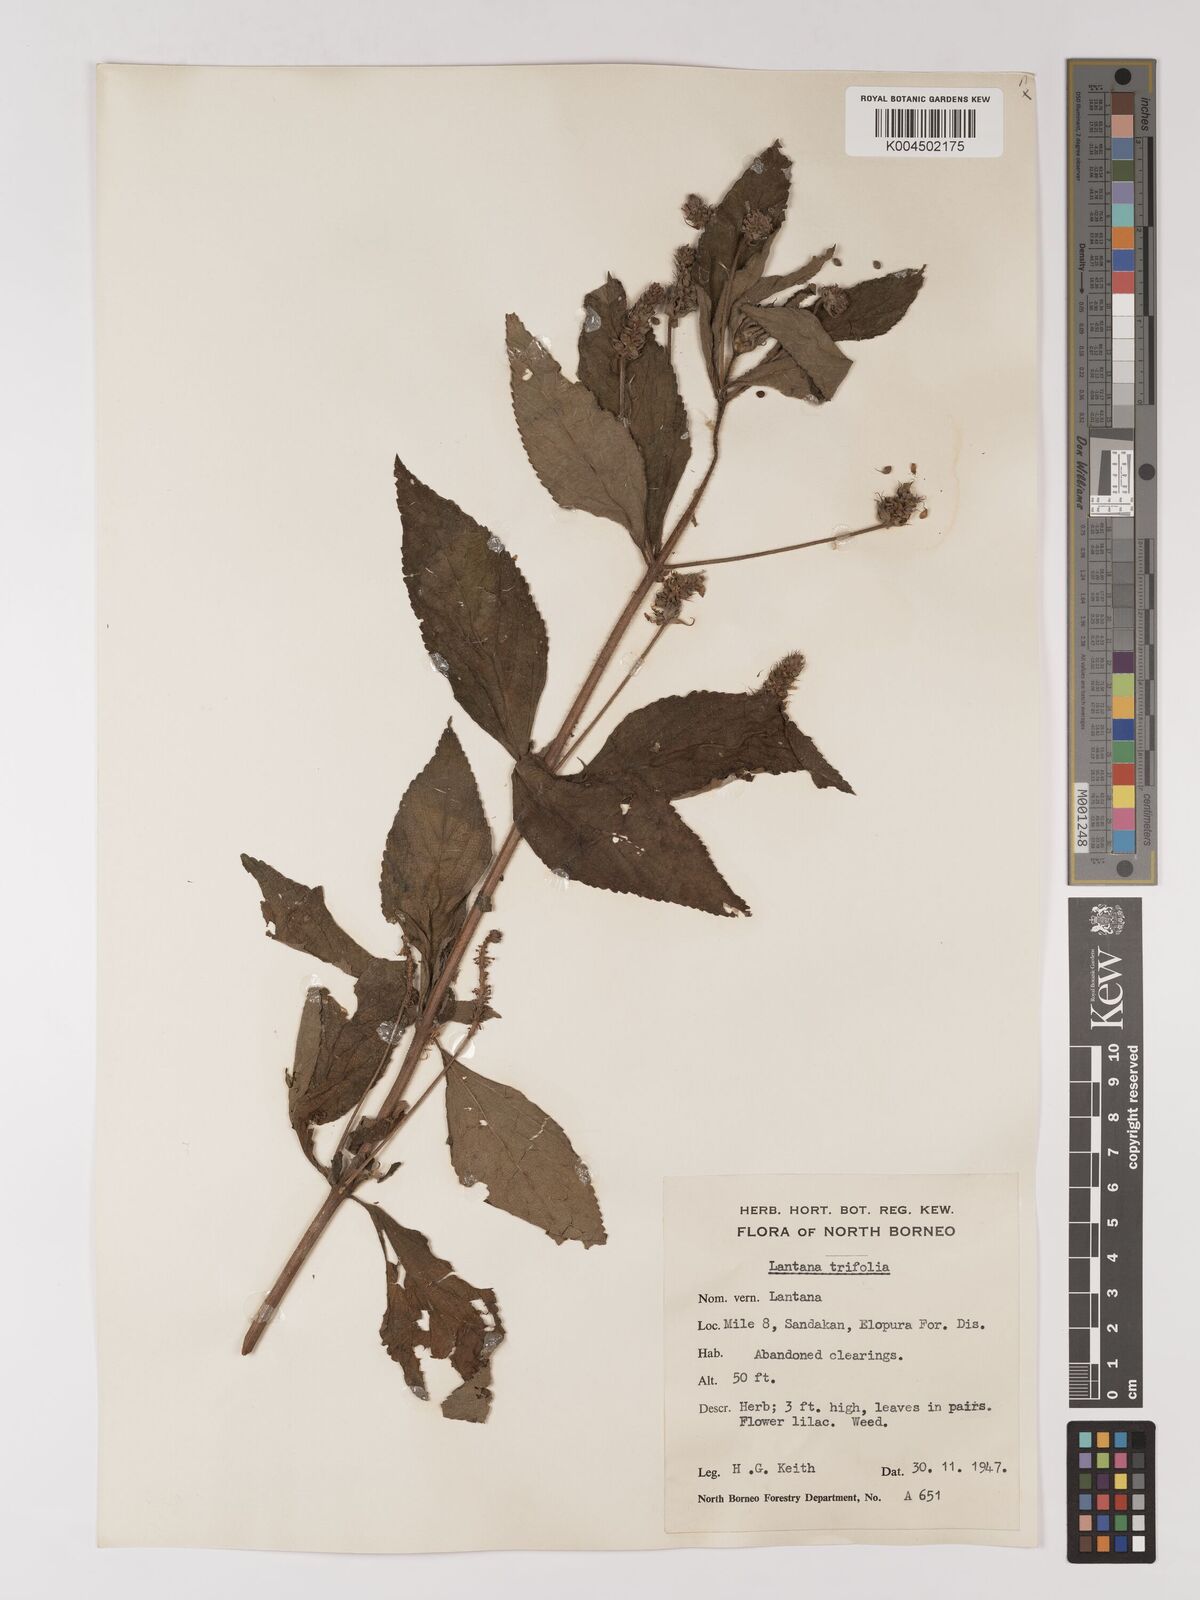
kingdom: Plantae
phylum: Tracheophyta
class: Magnoliopsida
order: Lamiales
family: Verbenaceae
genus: Lantana
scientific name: Lantana trifolia
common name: Sweet-sage
